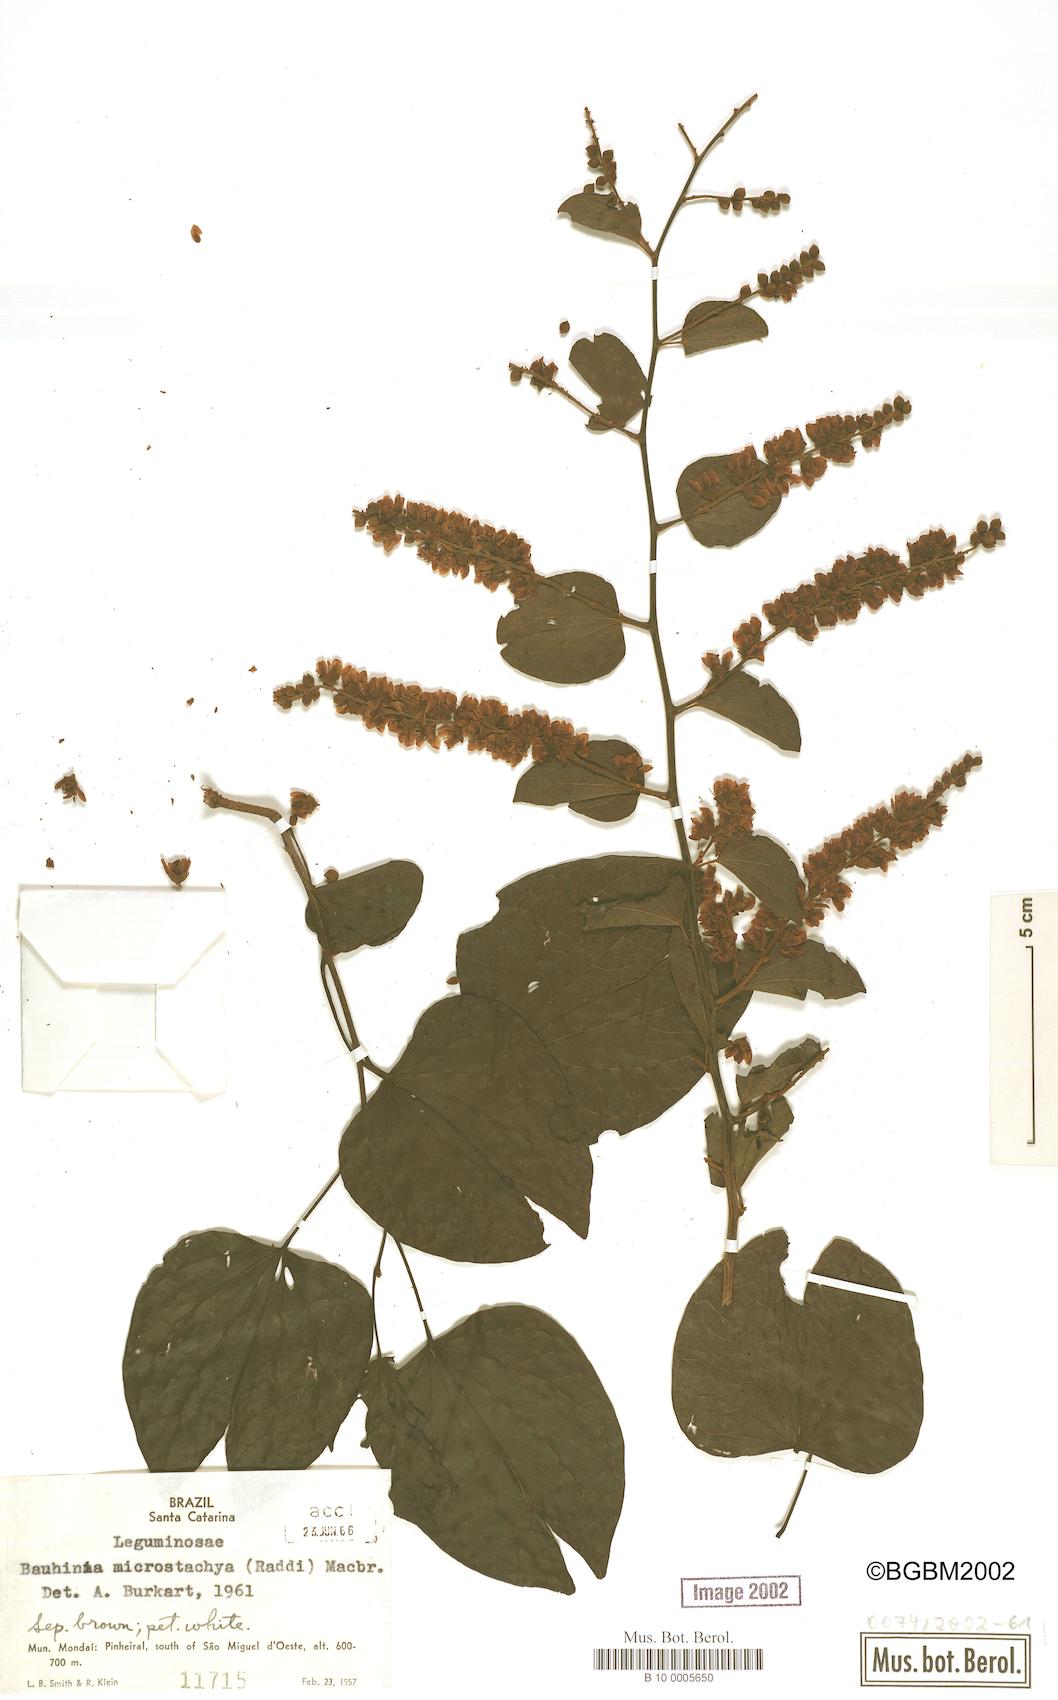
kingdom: Plantae
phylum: Tracheophyta
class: Magnoliopsida
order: Fabales
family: Fabaceae
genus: Schnella
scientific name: Schnella microstachya
